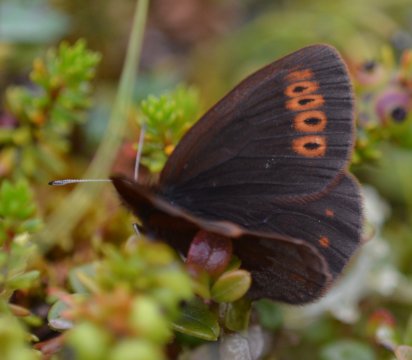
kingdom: Animalia
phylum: Arthropoda
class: Insecta
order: Lepidoptera
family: Nymphalidae
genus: Erebia
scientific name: Erebia lafontainei
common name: Reddish Alpine
